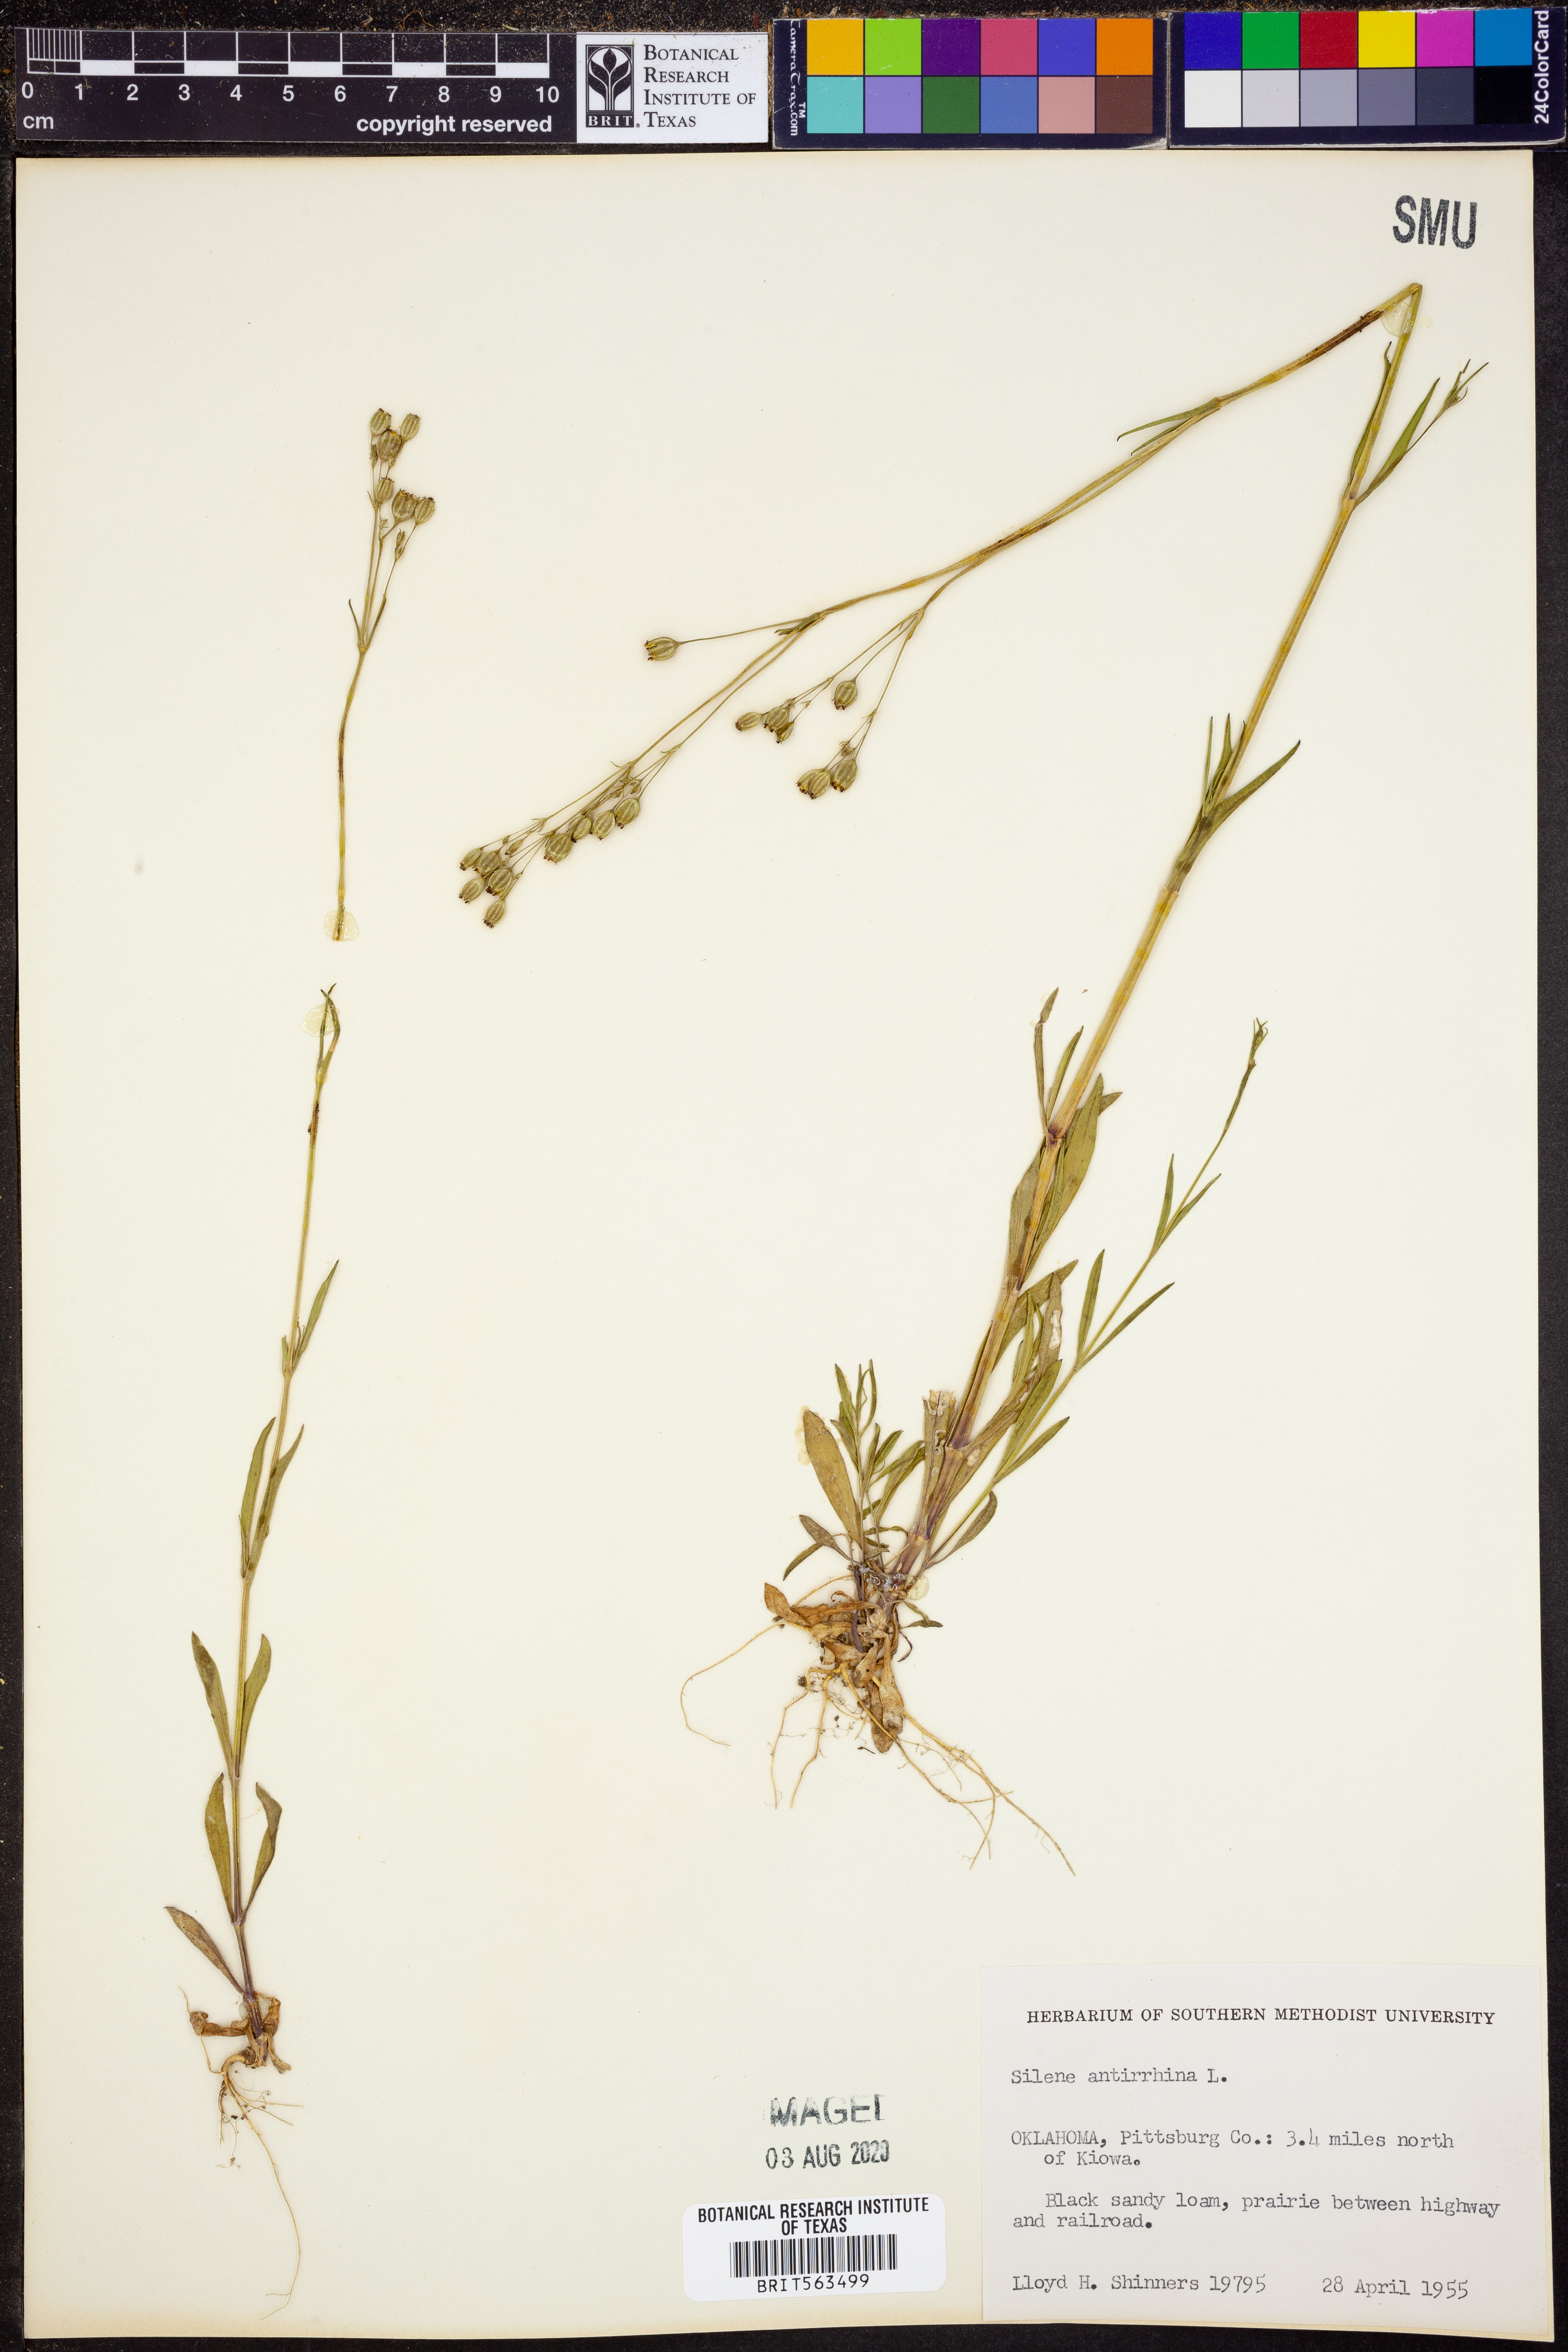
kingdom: Plantae
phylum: Tracheophyta
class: Magnoliopsida
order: Caryophyllales
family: Caryophyllaceae
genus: Silene
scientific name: Silene antirrhina
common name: Sleepy catchfly
